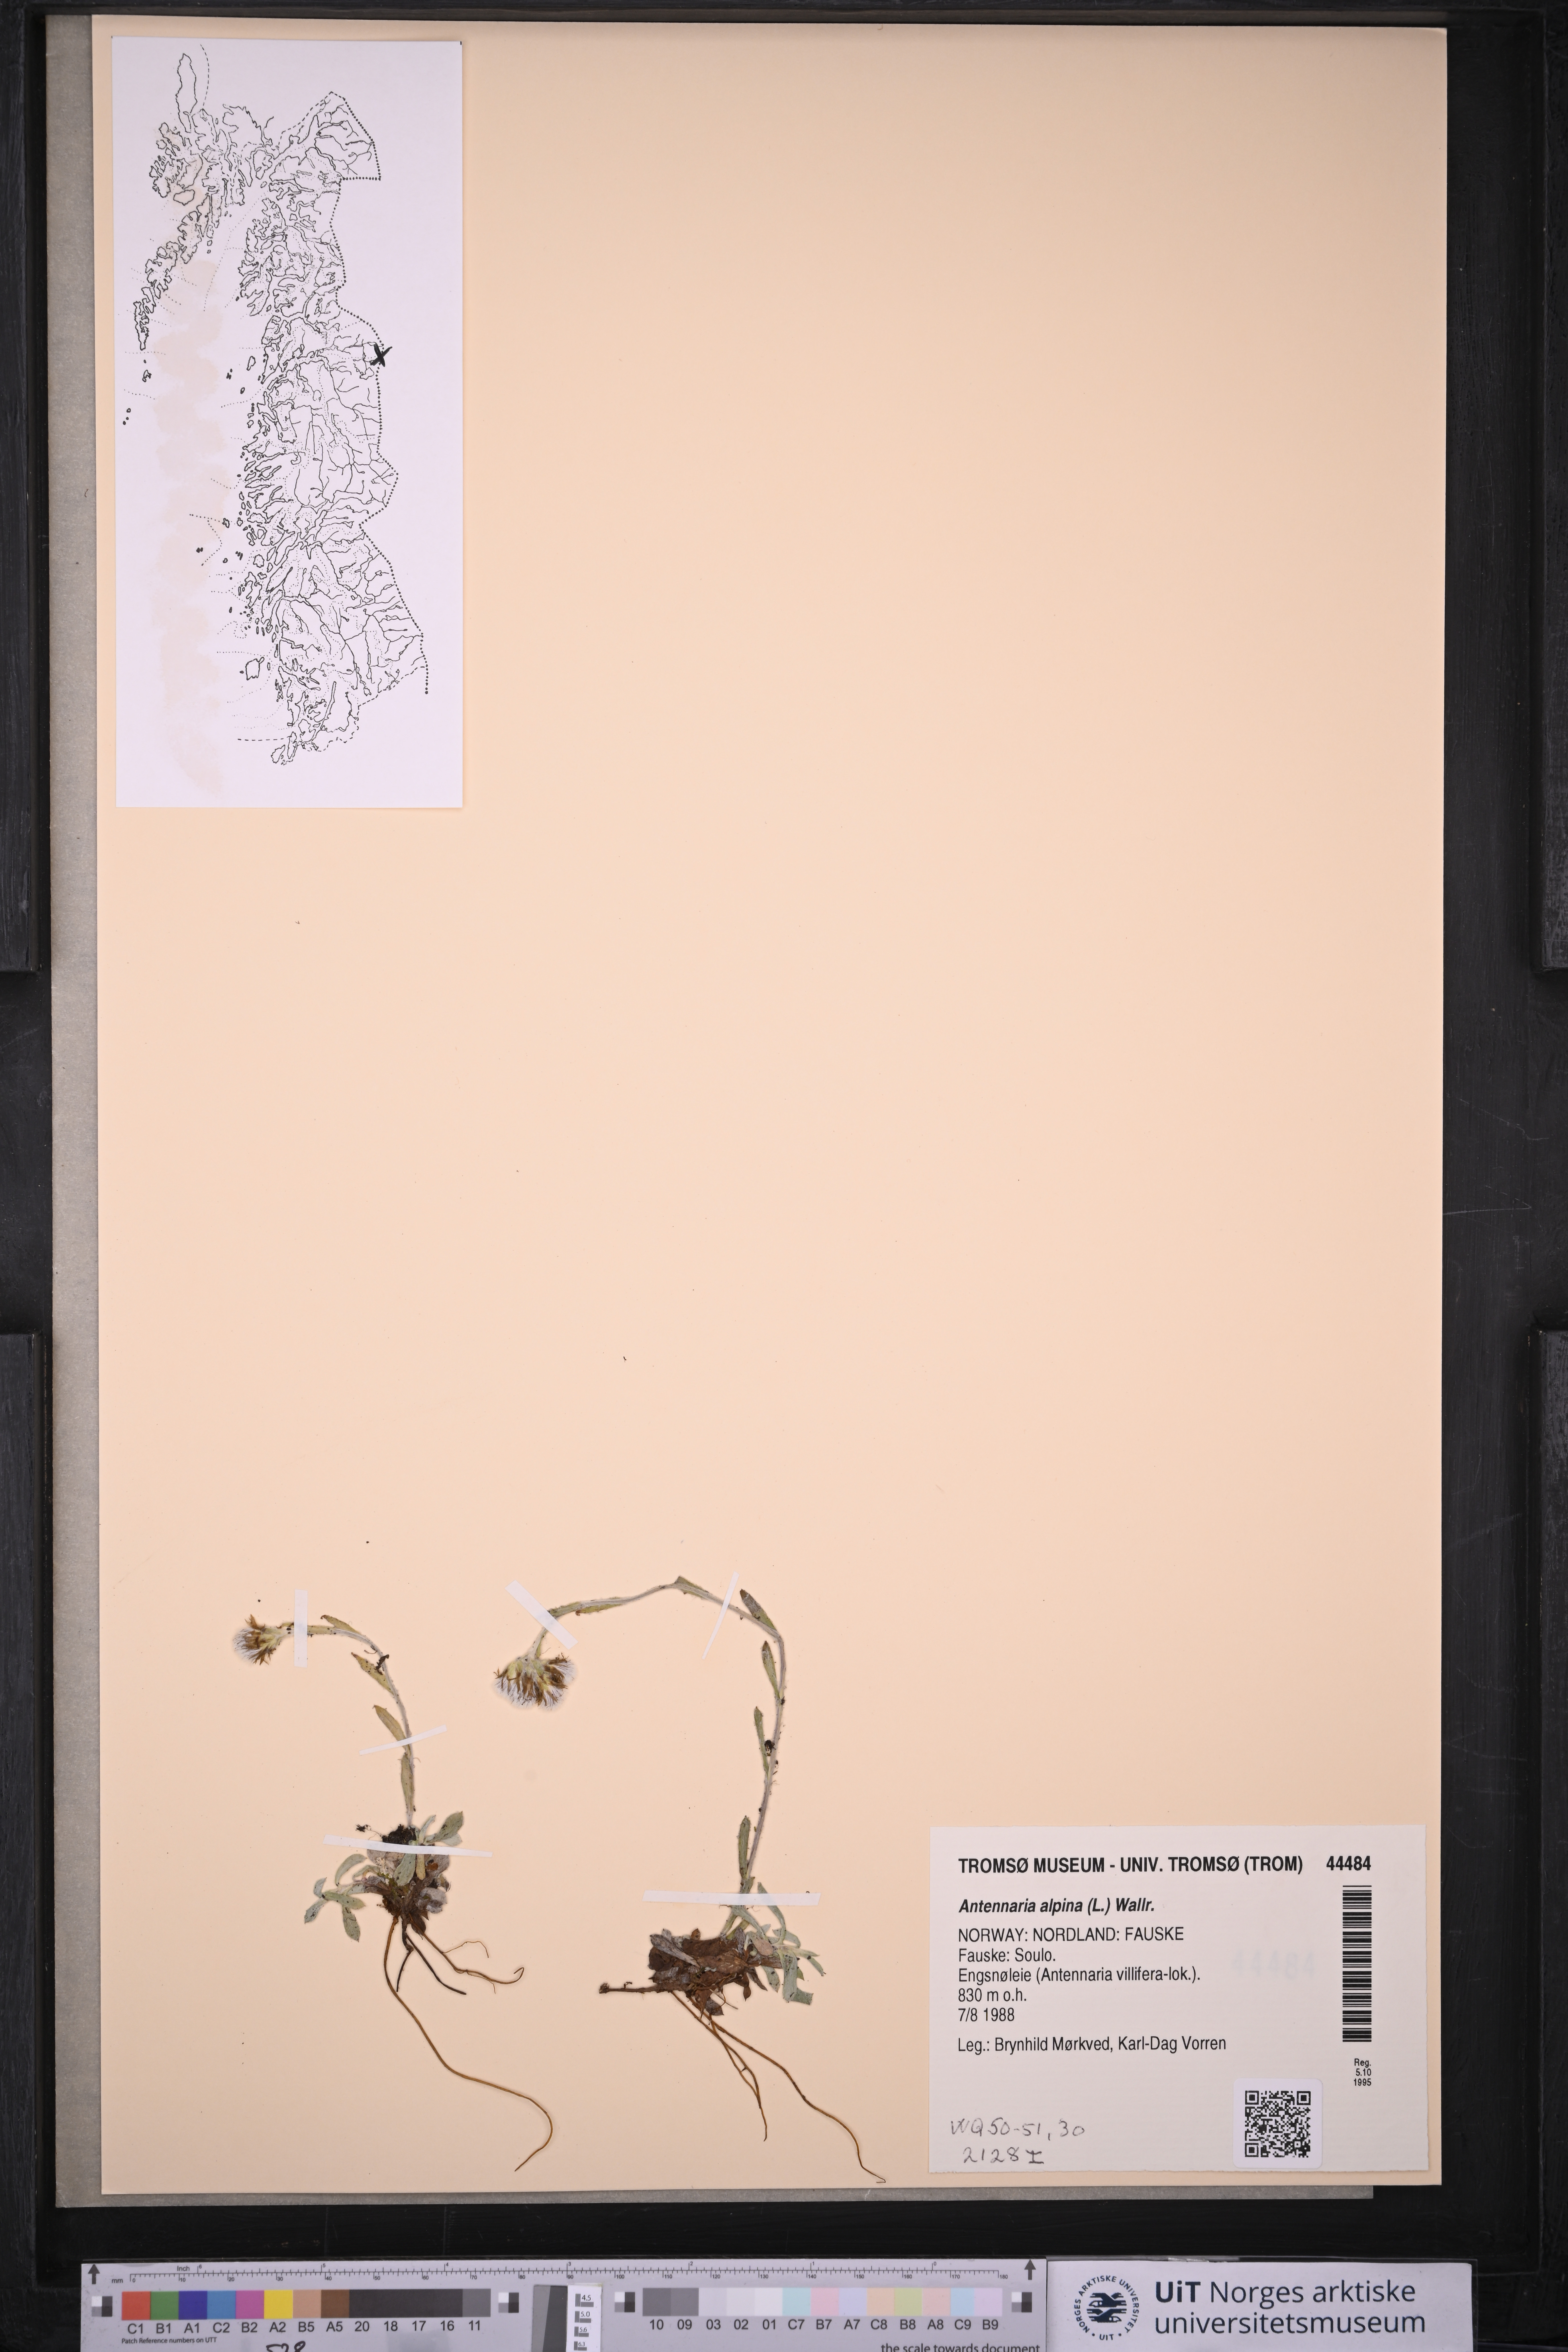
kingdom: Plantae
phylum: Tracheophyta
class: Magnoliopsida
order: Asterales
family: Asteraceae
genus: Antennaria
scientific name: Antennaria alpina
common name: Alpine pussytoes
